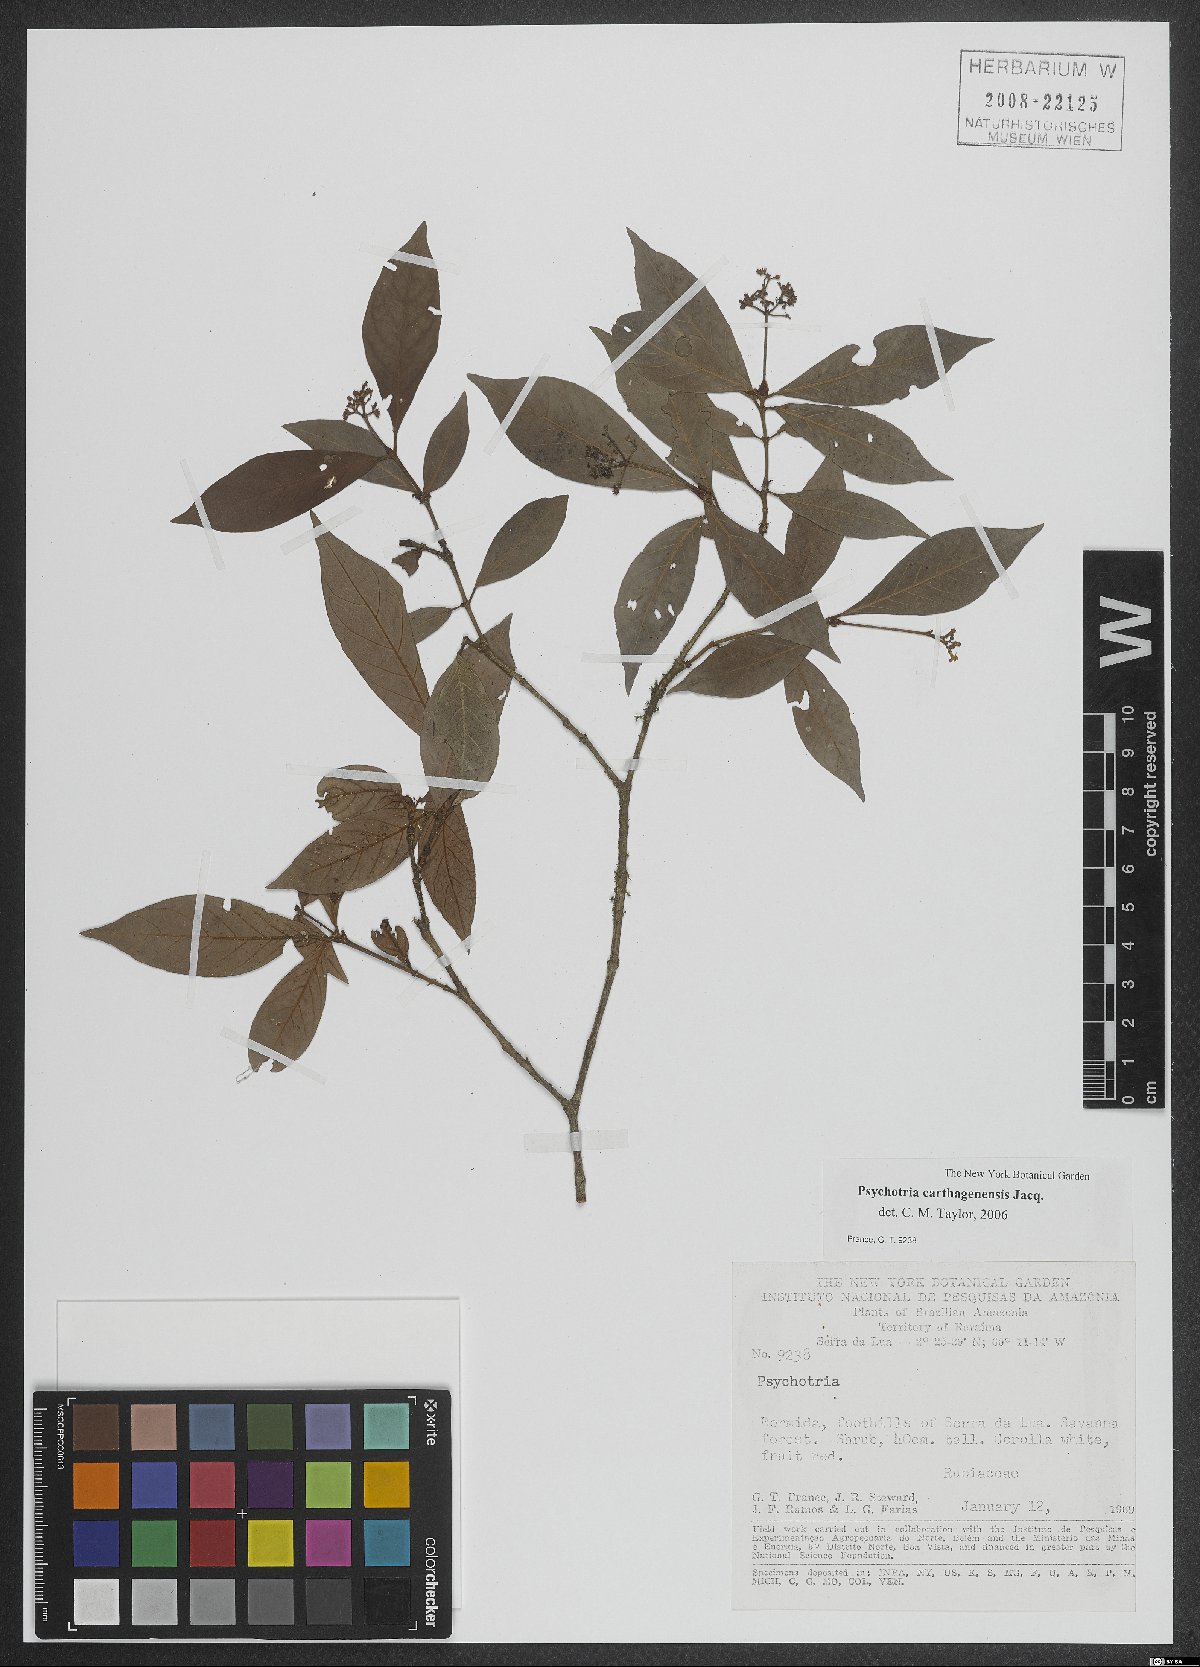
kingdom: Plantae
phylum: Tracheophyta
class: Magnoliopsida
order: Gentianales
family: Rubiaceae
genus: Psychotria
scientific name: Psychotria carthagenensis
